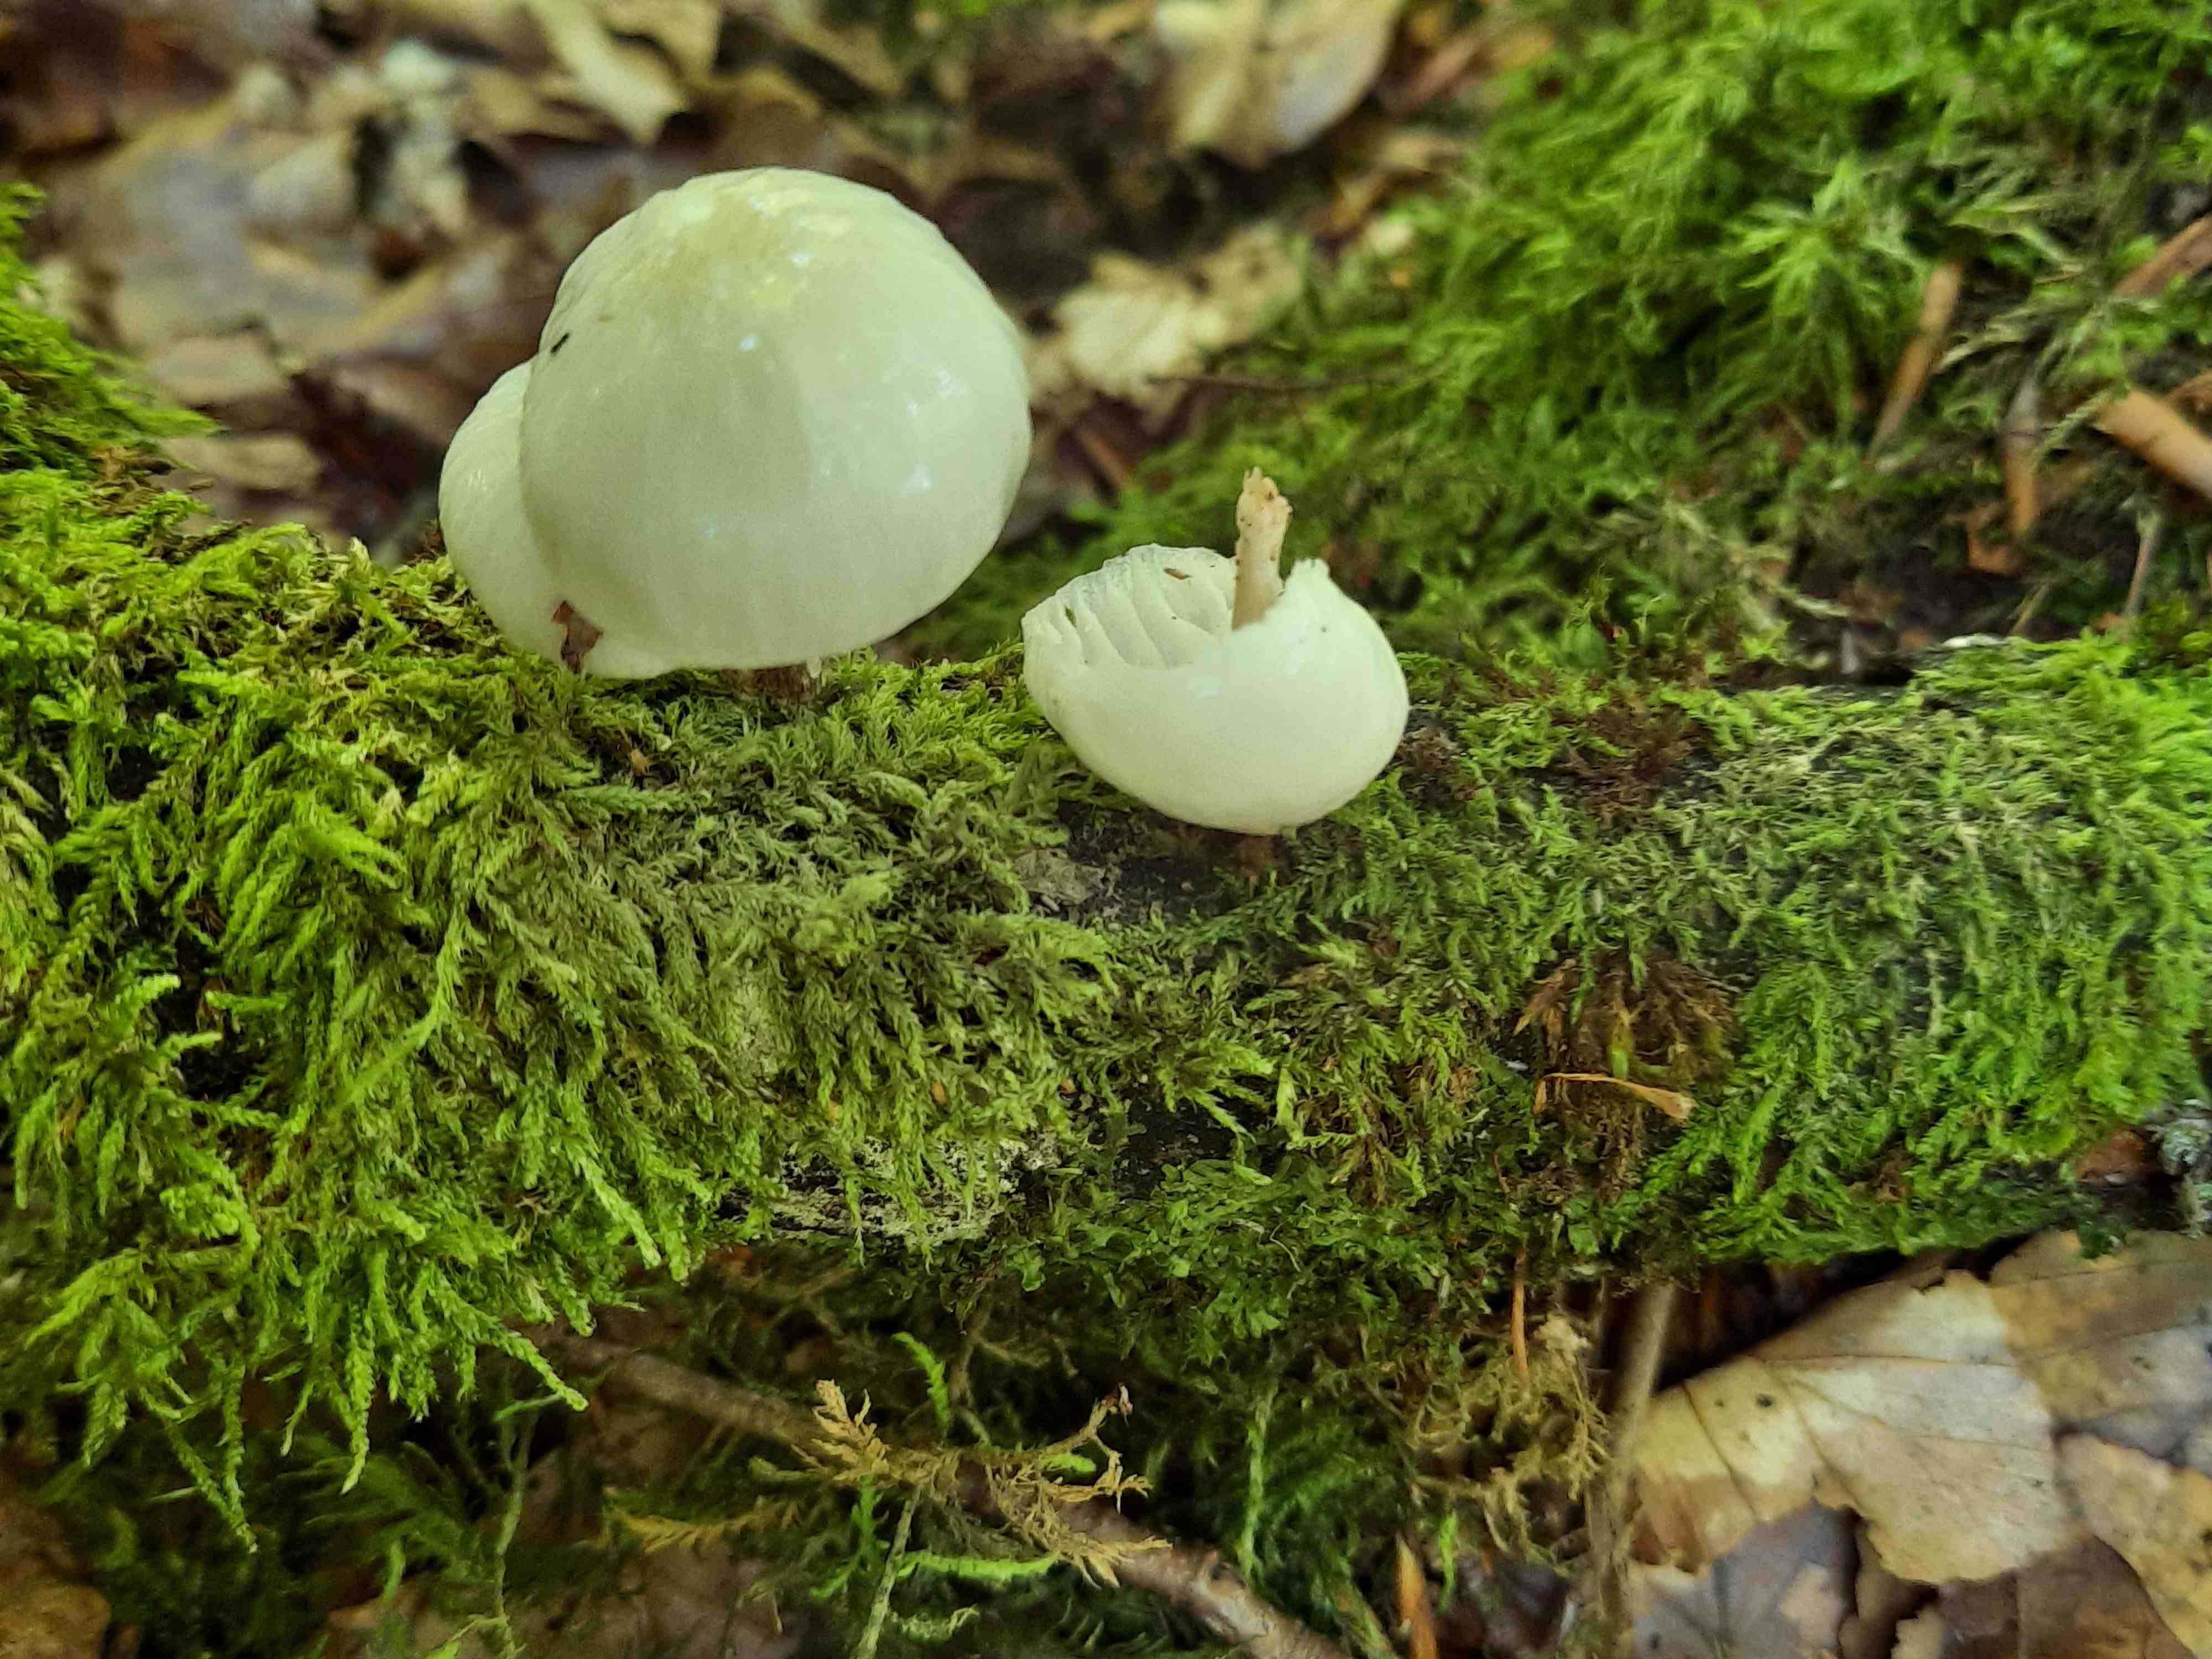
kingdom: Fungi
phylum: Basidiomycota
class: Agaricomycetes
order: Agaricales
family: Physalacriaceae
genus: Mucidula
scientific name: Mucidula mucida
